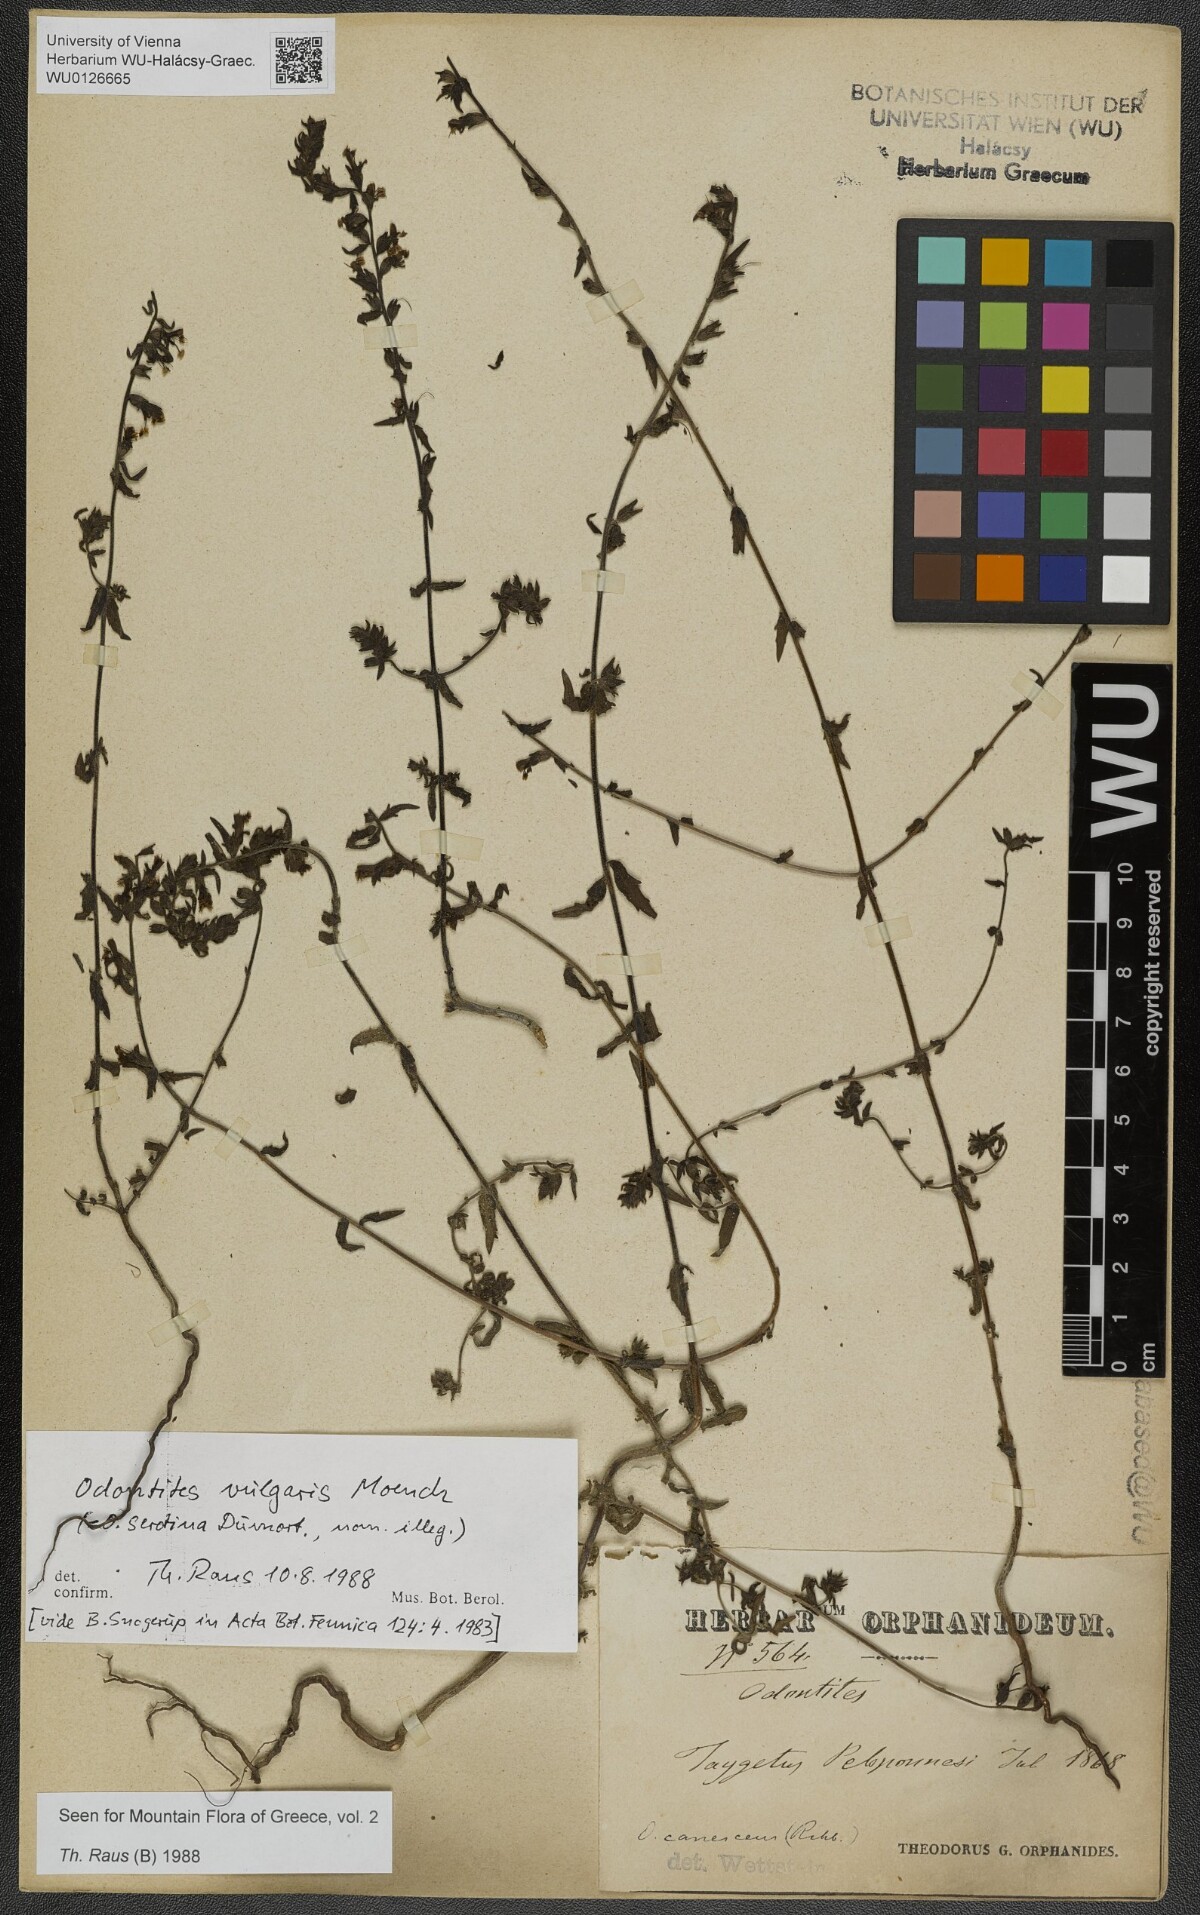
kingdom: Plantae
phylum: Tracheophyta
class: Magnoliopsida
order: Lamiales
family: Orobanchaceae
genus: Odontites
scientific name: Odontites vulgaris
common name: Broomrape
